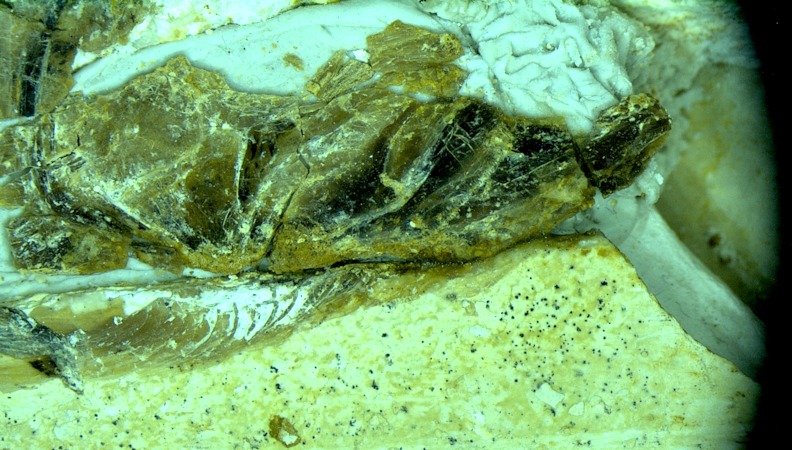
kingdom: Animalia
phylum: Chordata
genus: Pachythrissops
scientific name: Pachythrissops propterus
